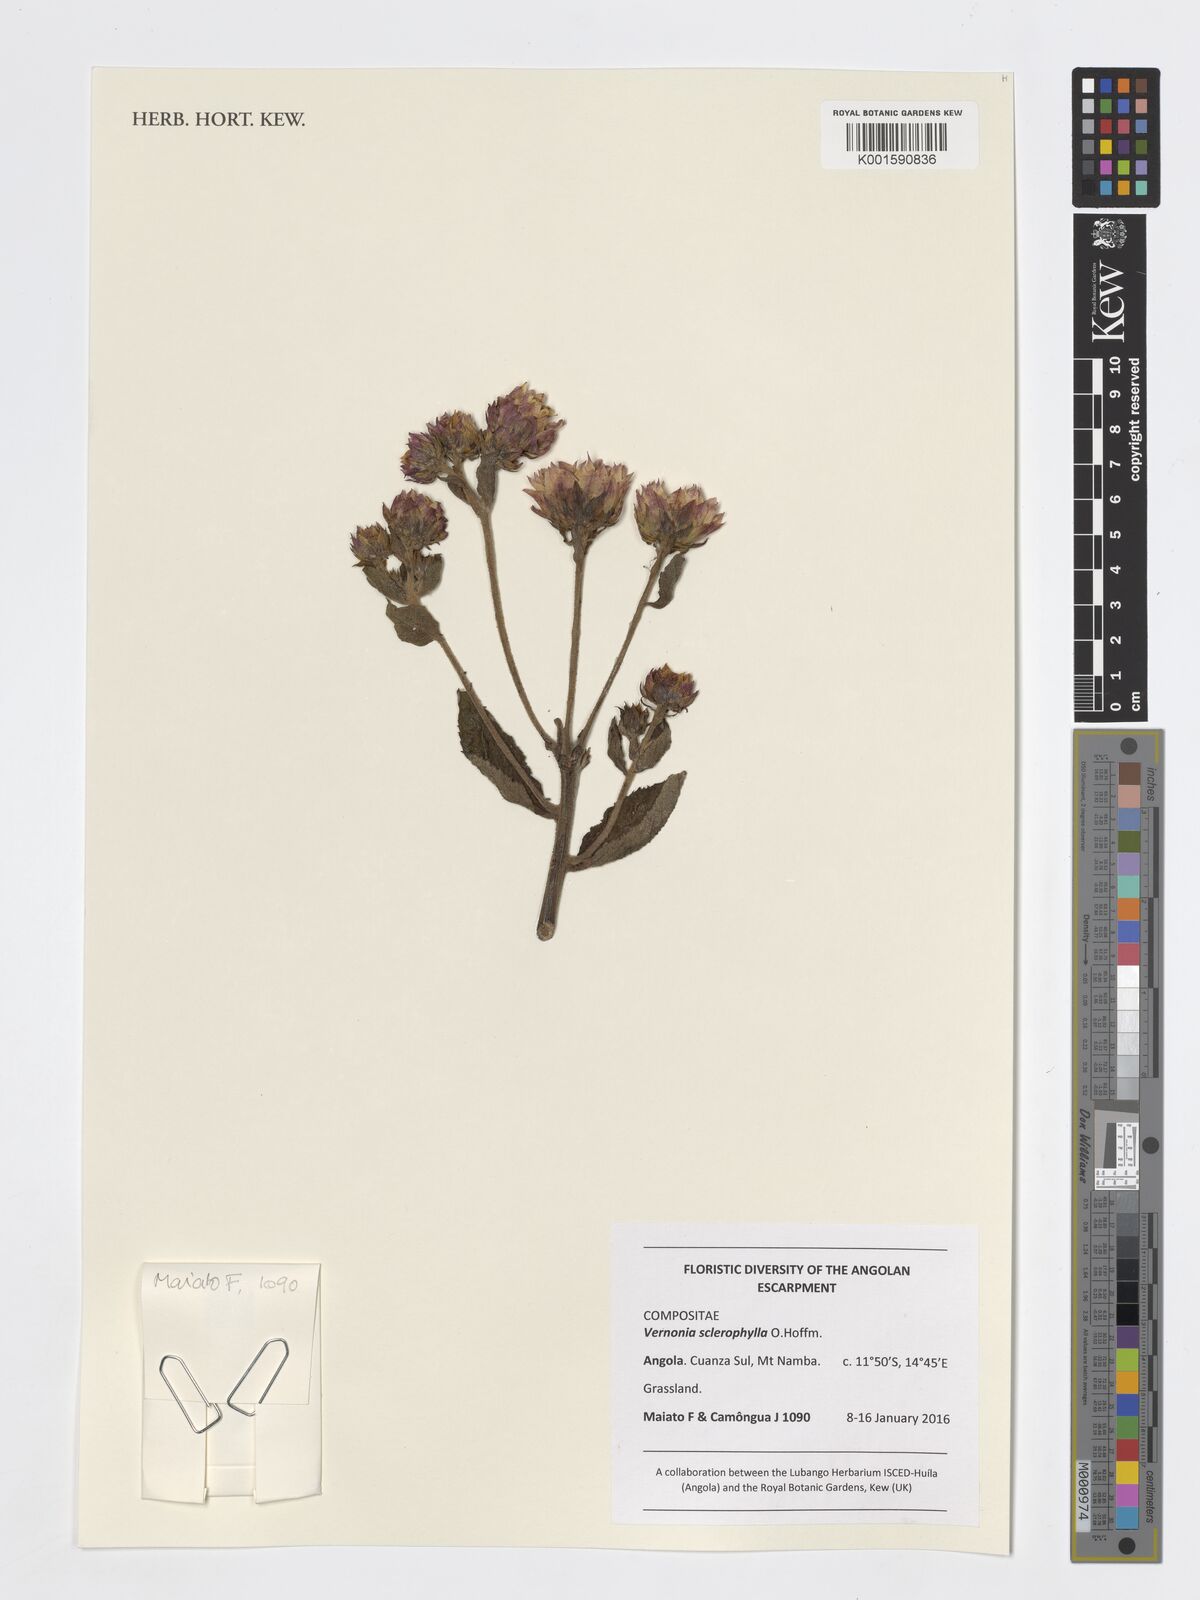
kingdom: Plantae
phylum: Tracheophyta
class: Magnoliopsida
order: Asterales
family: Asteraceae
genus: Vernonia
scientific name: Vernonia sclerophylla
